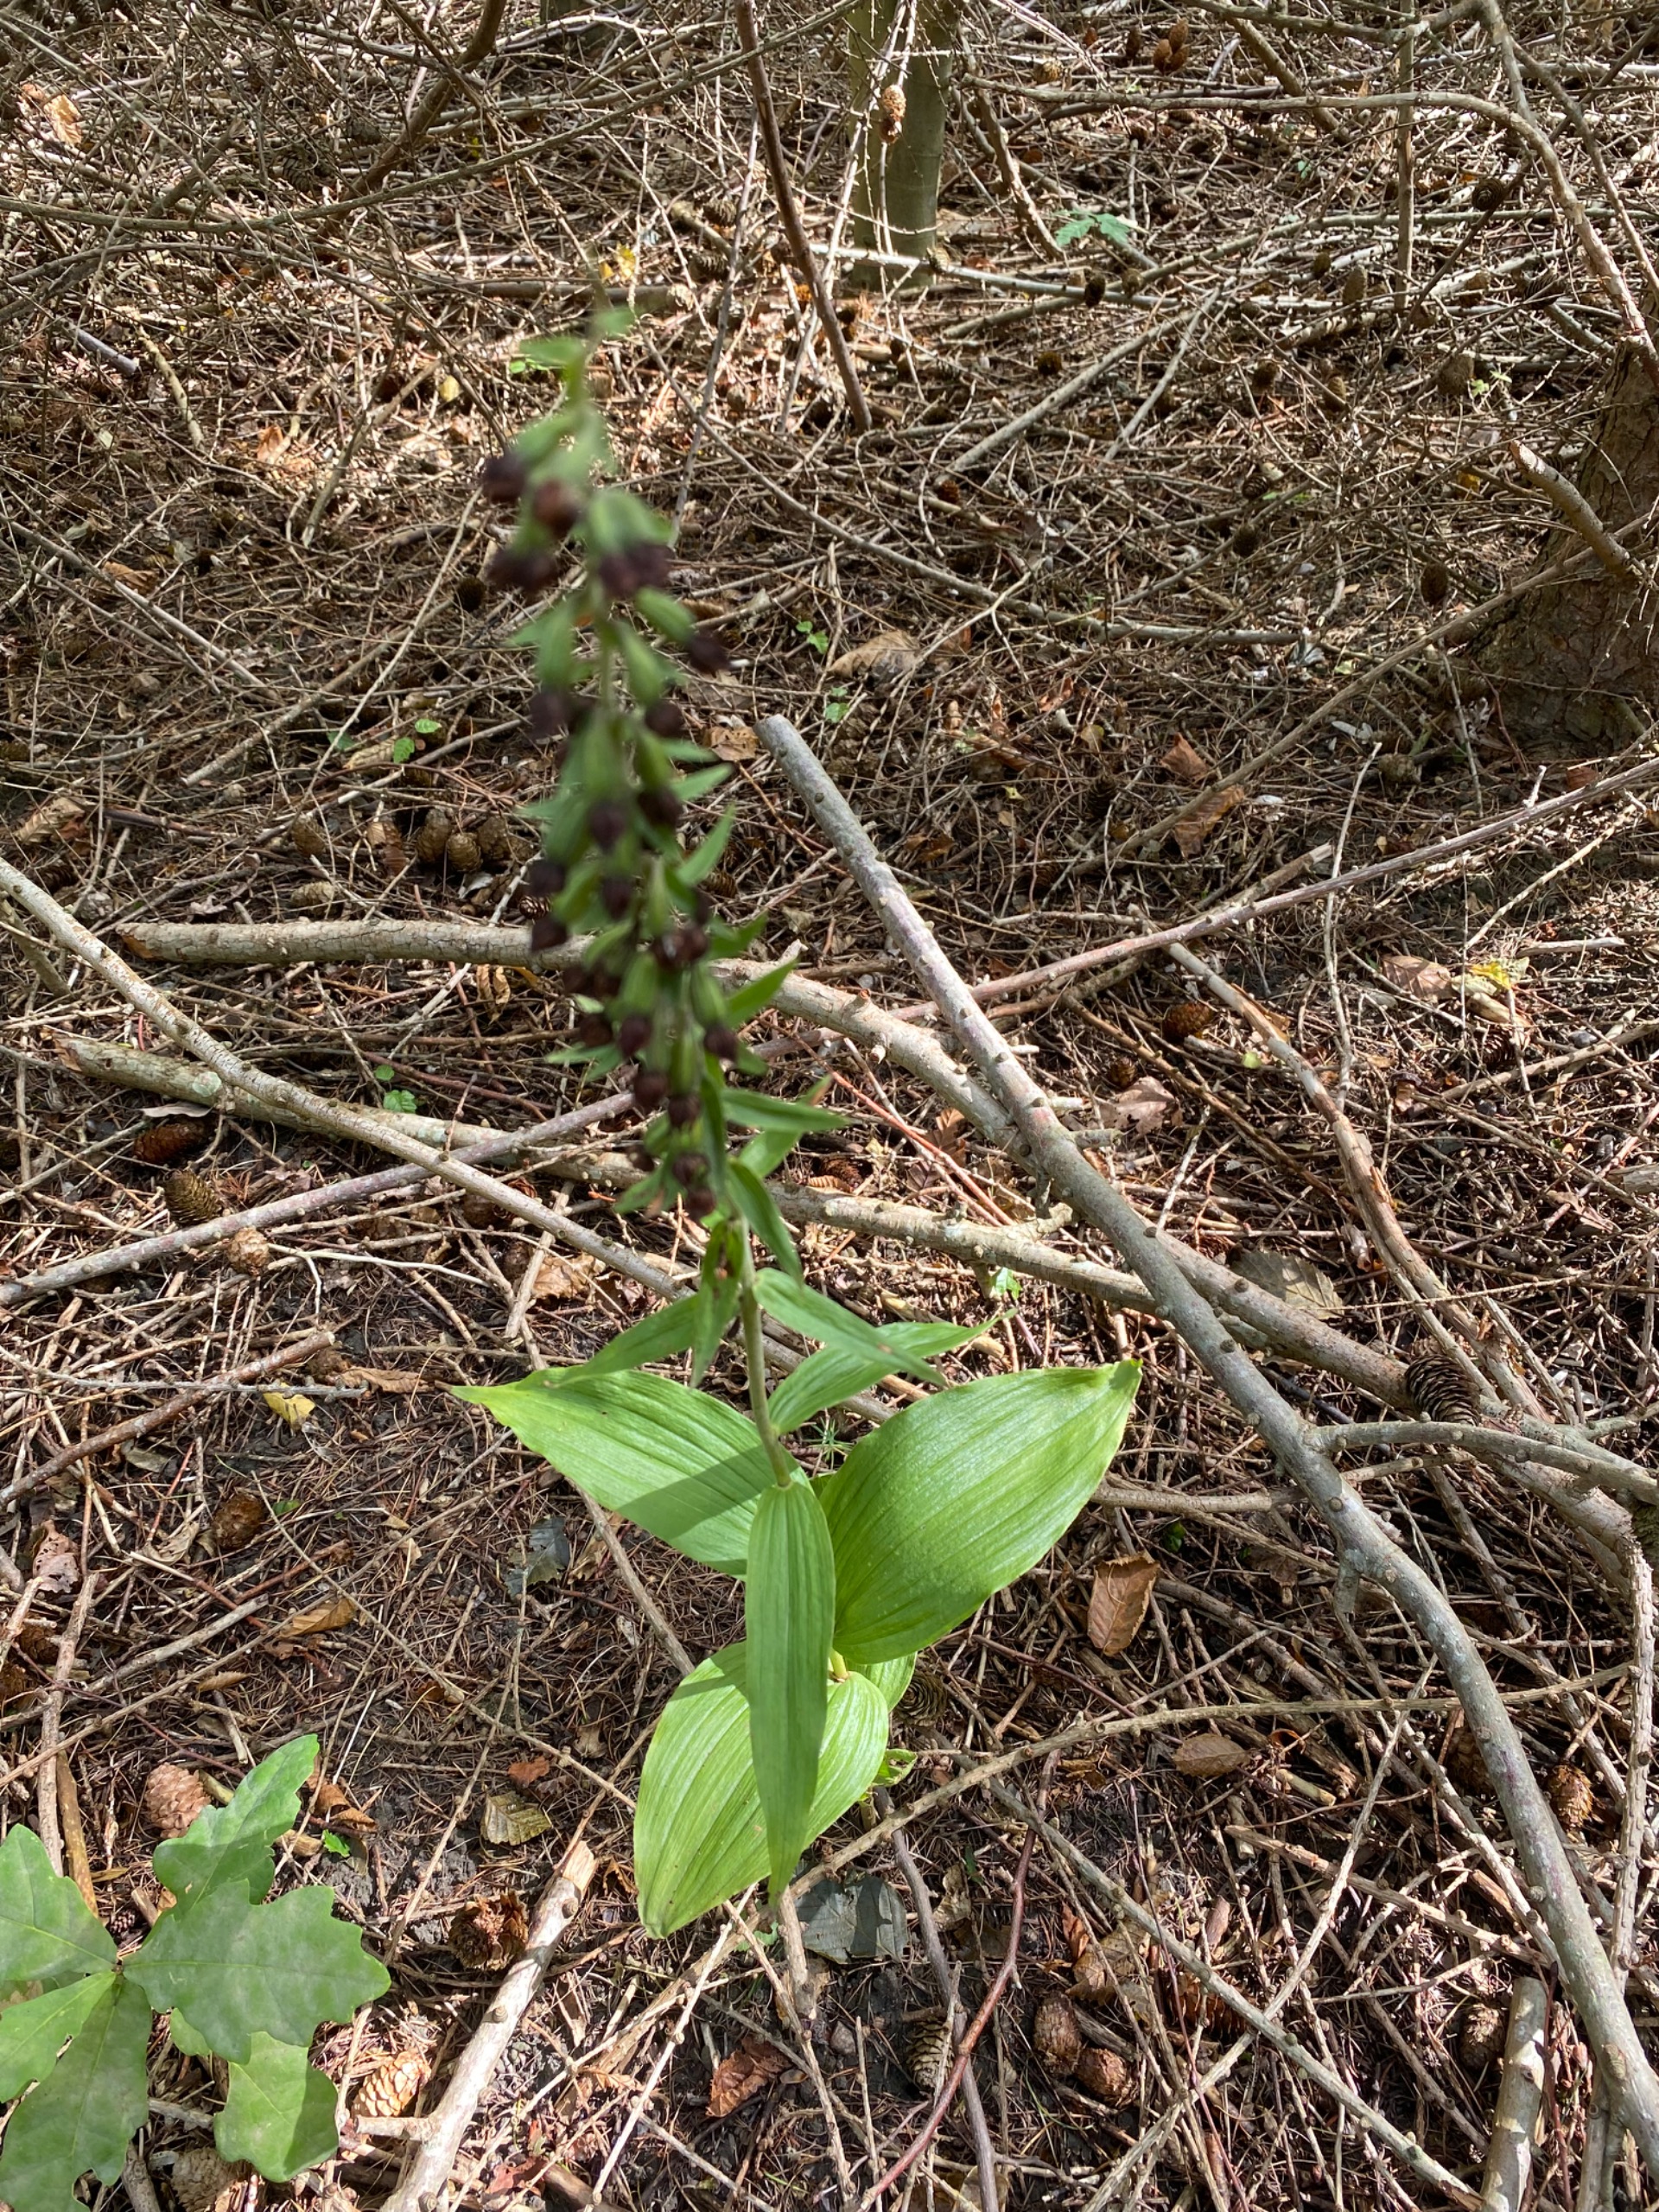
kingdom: Plantae
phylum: Tracheophyta
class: Liliopsida
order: Asparagales
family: Orchidaceae
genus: Epipactis
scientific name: Epipactis helleborine
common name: Skov-hullæbe
